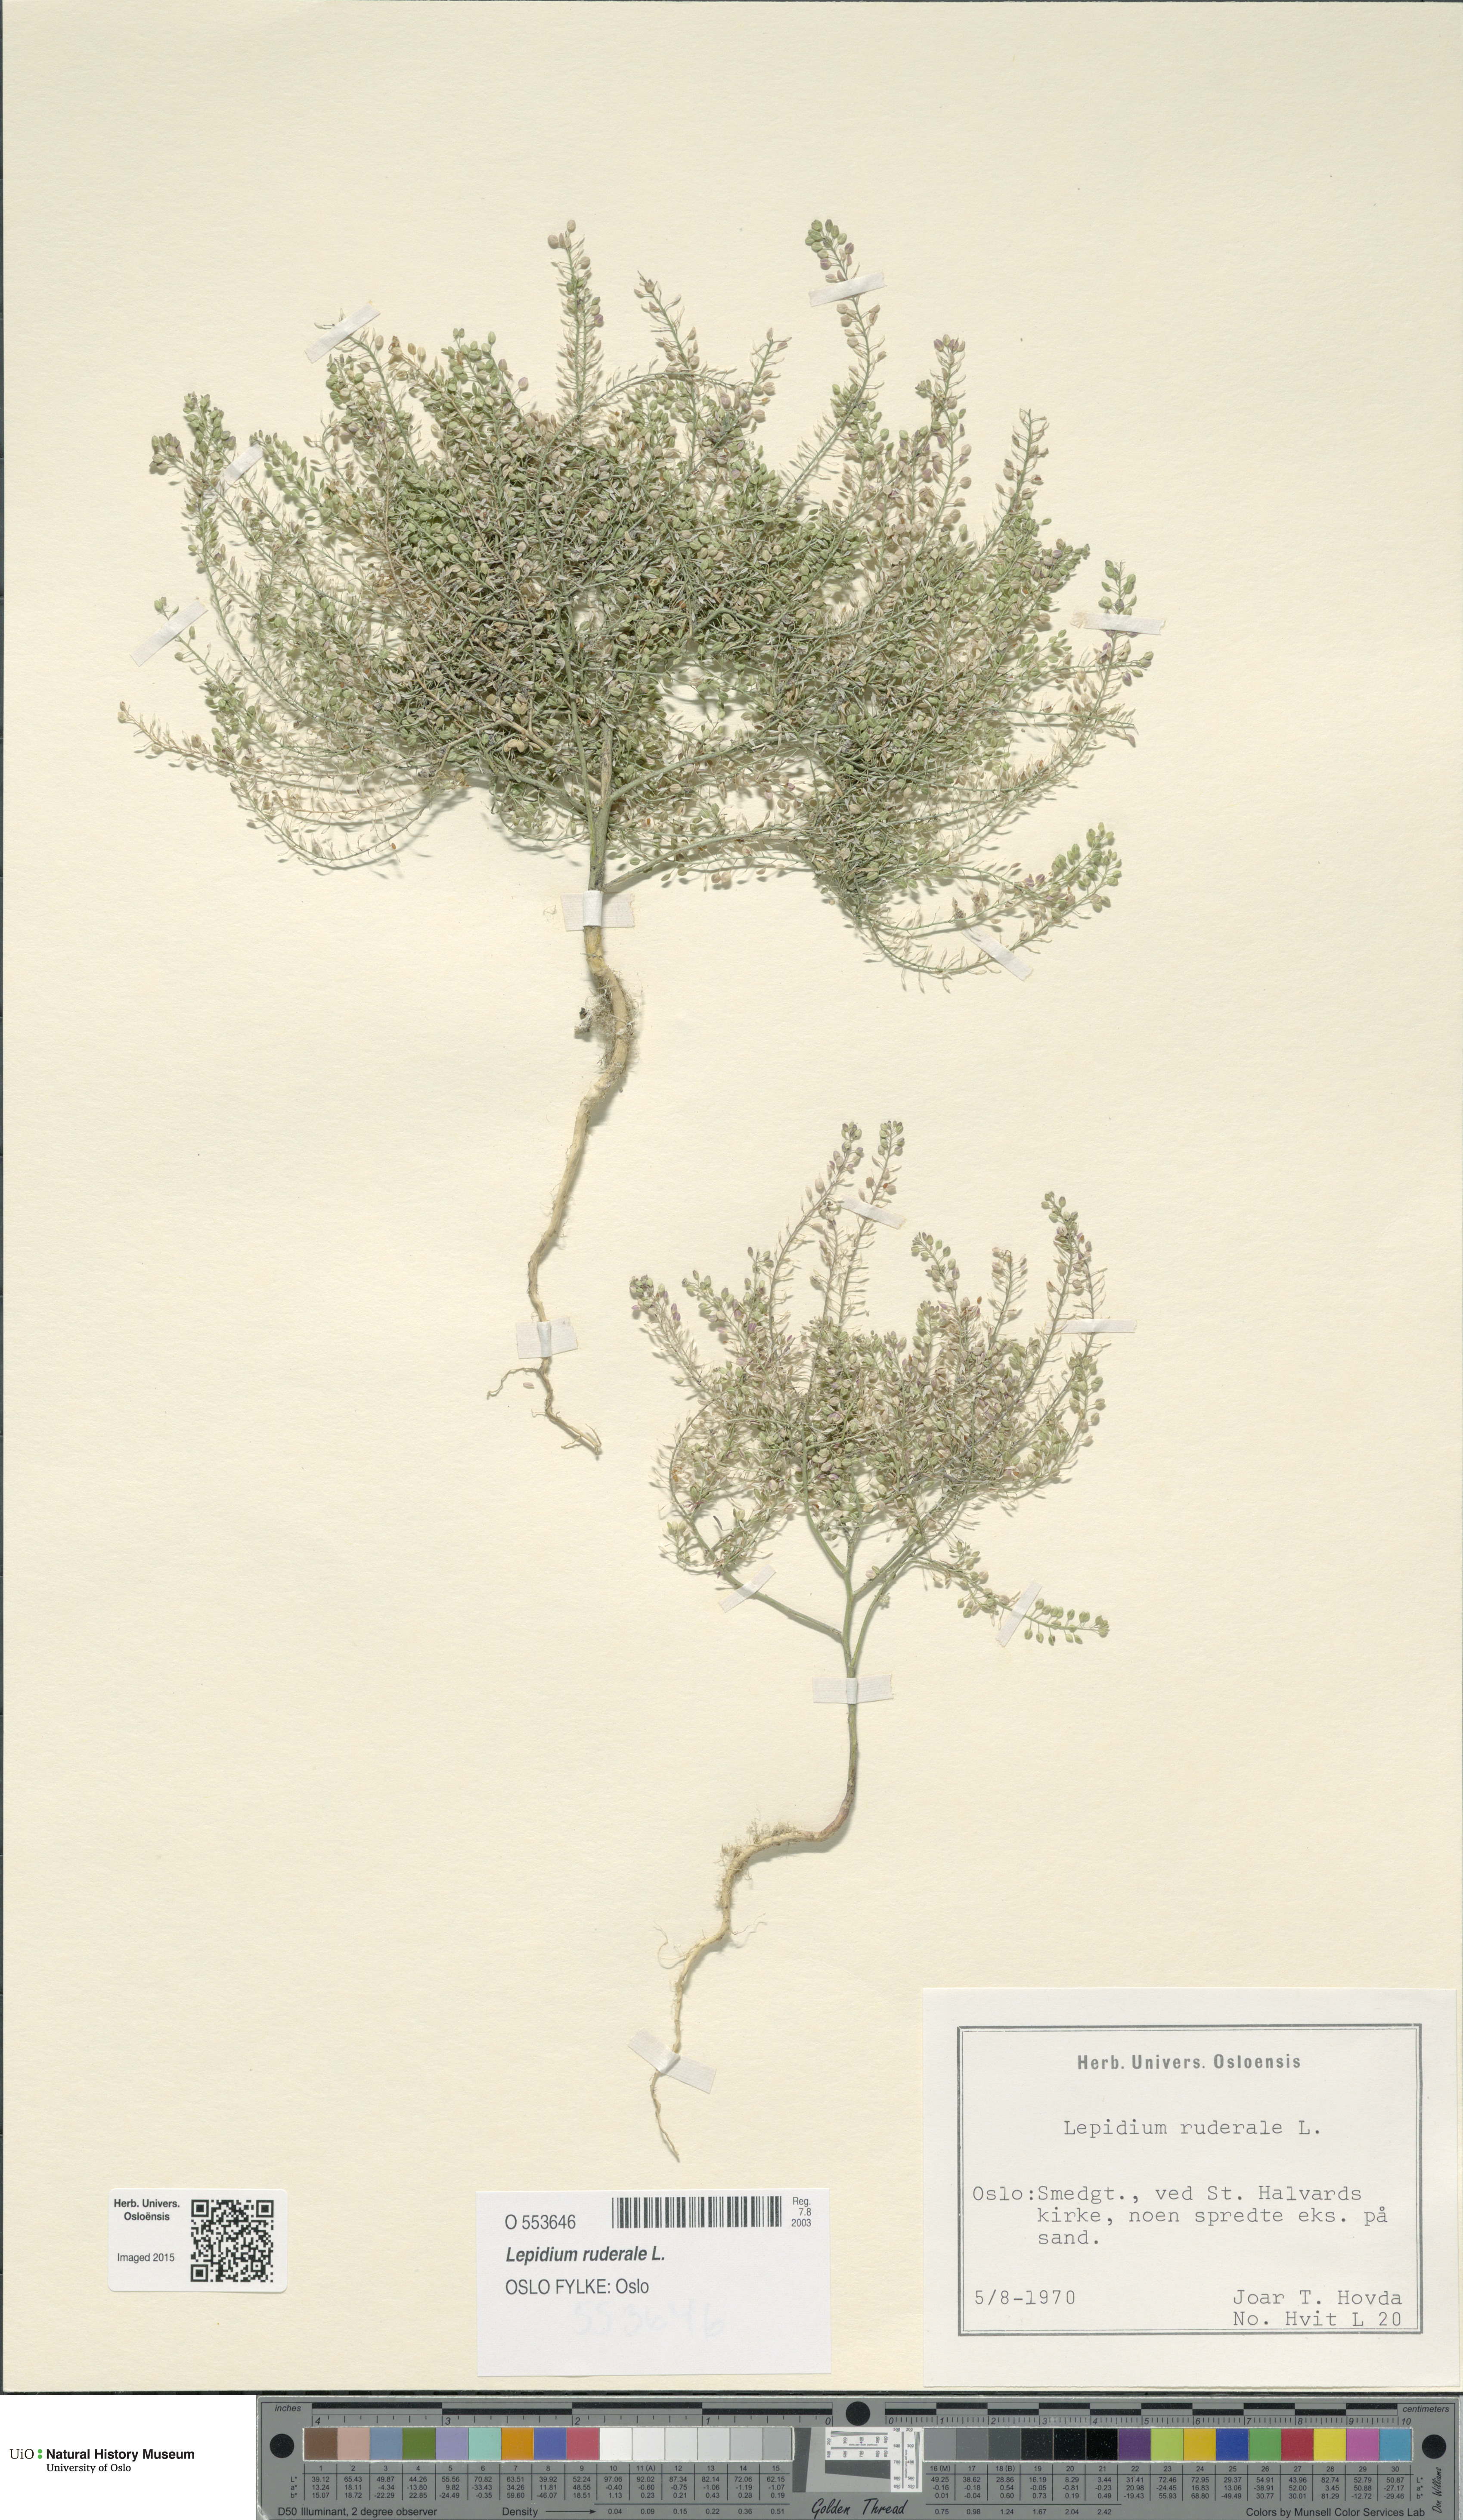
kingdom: Plantae
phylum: Tracheophyta
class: Magnoliopsida
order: Brassicales
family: Brassicaceae
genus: Lepidium
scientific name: Lepidium ruderale
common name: Narrow-leaved pepperwort
